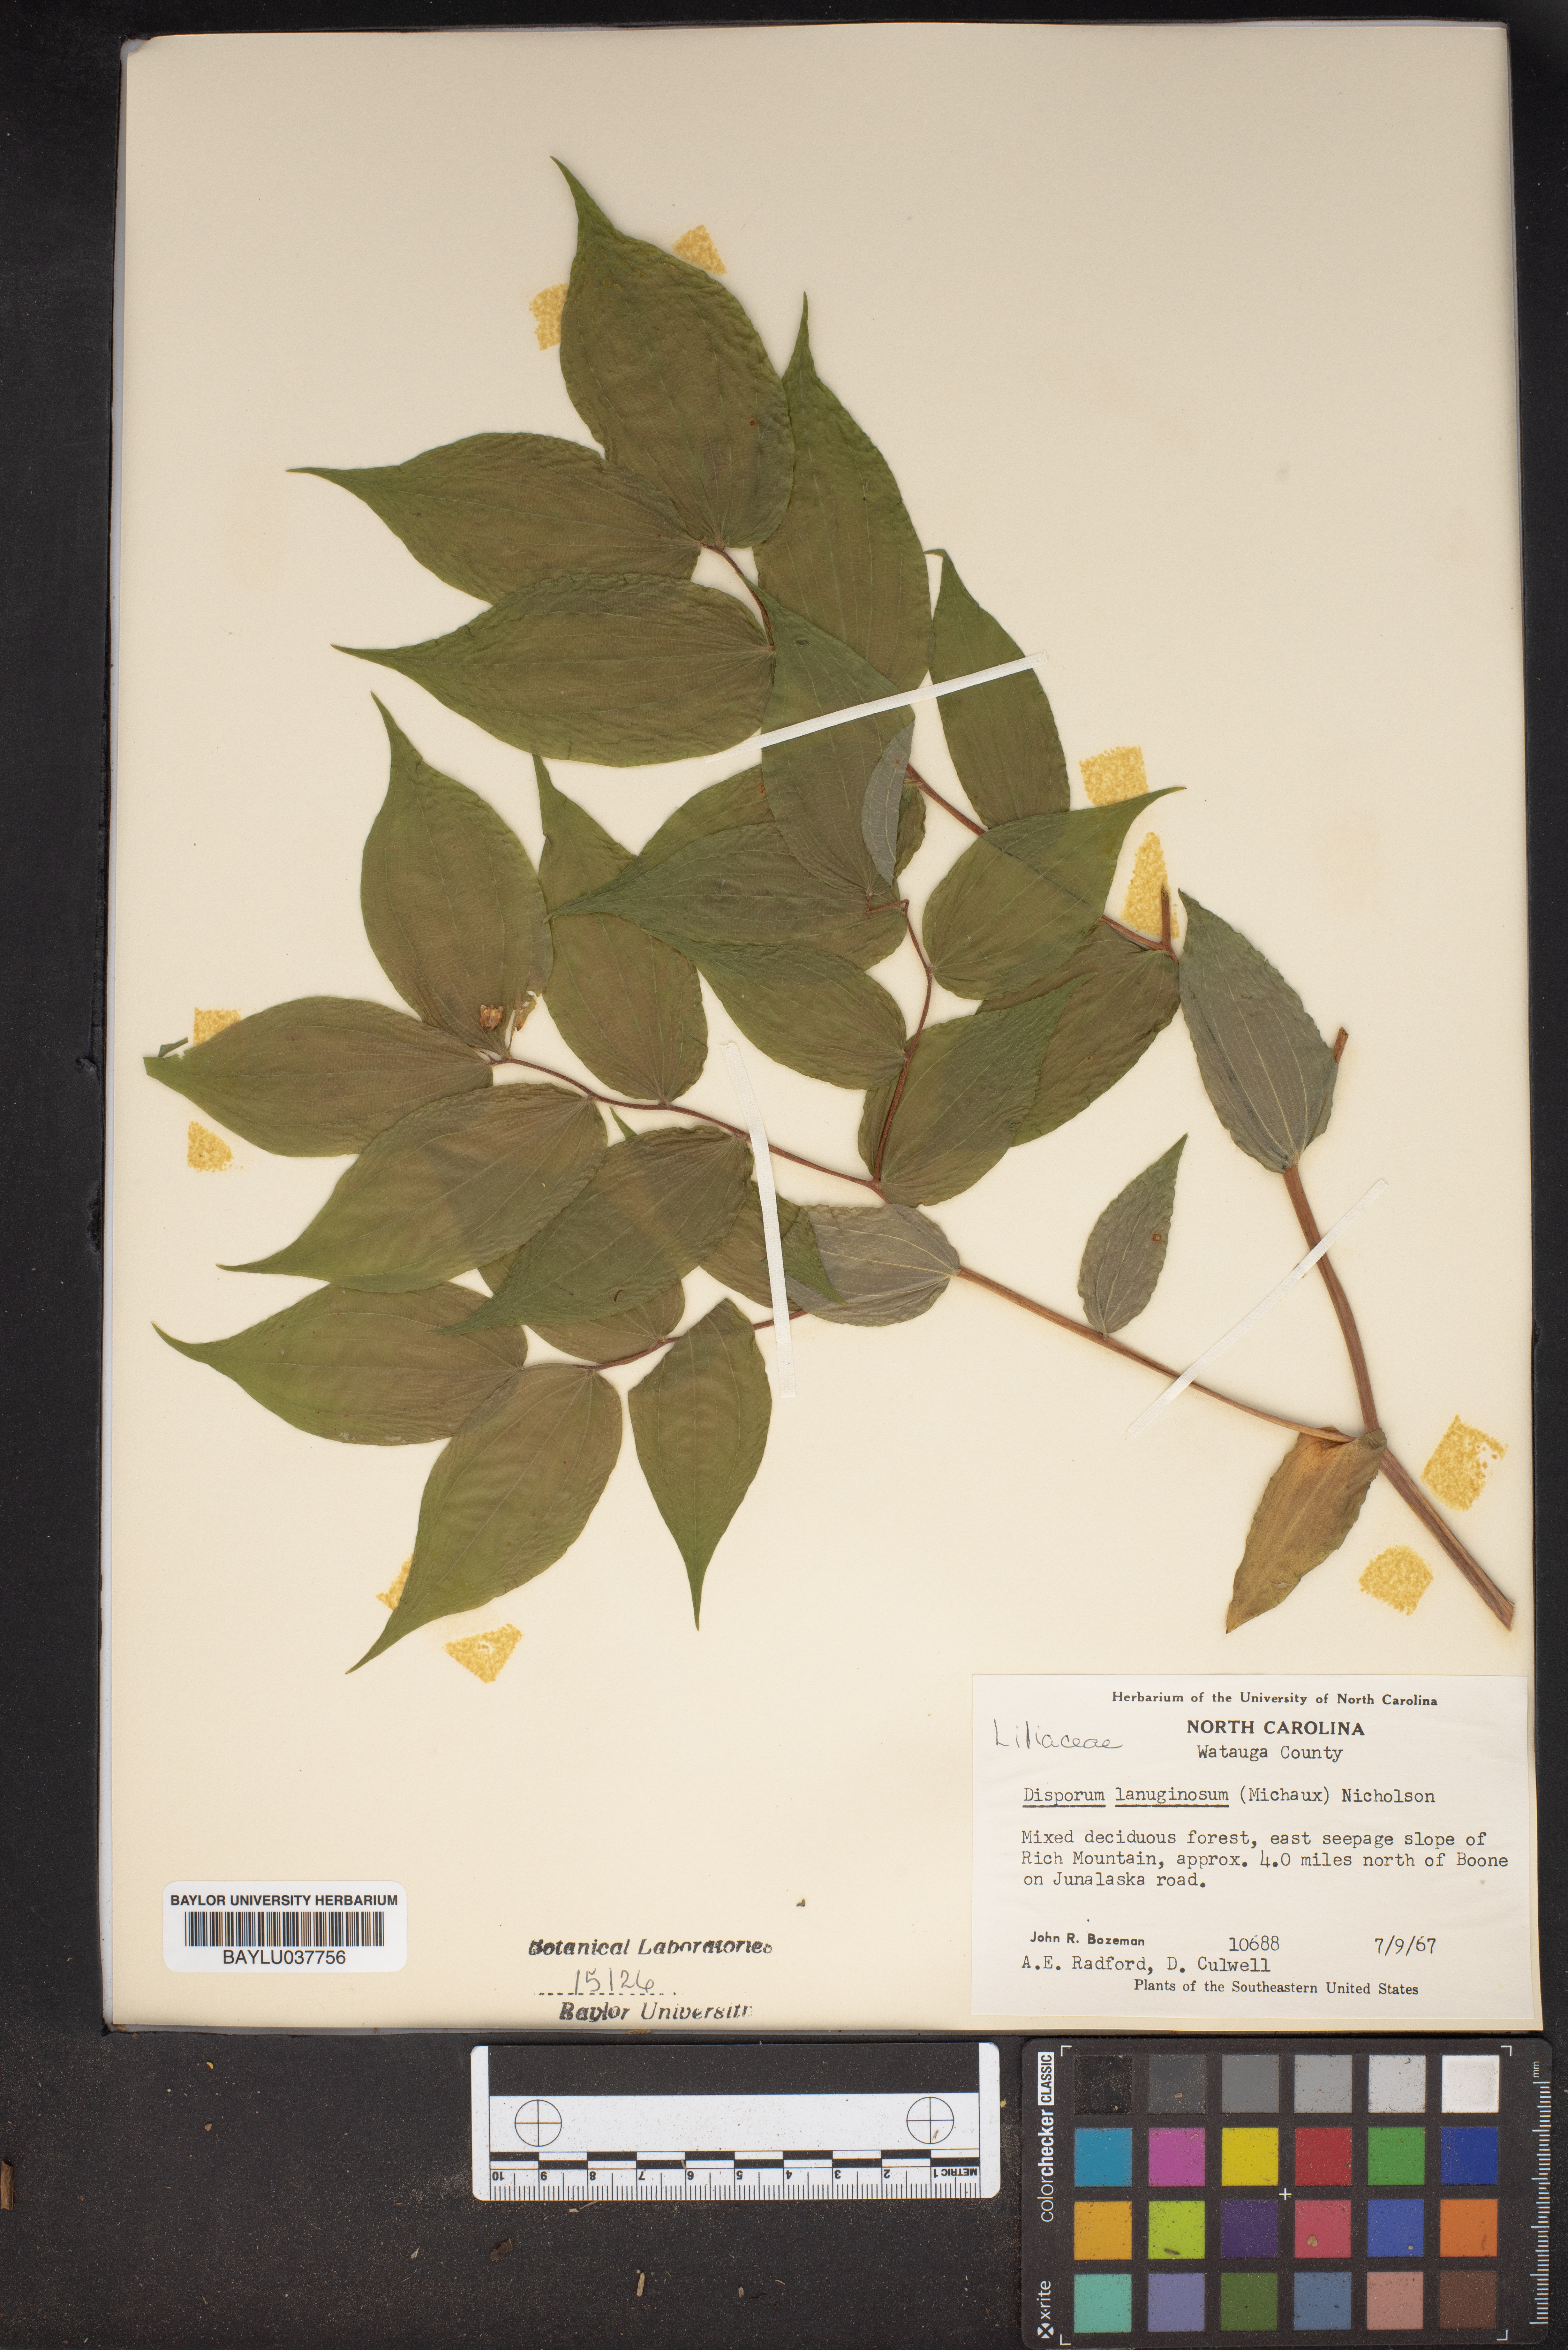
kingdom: Plantae
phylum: Tracheophyta
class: Liliopsida
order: Liliales
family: Liliaceae
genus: Prosartes
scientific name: Prosartes lanuginosa
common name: Hairy mandarin
